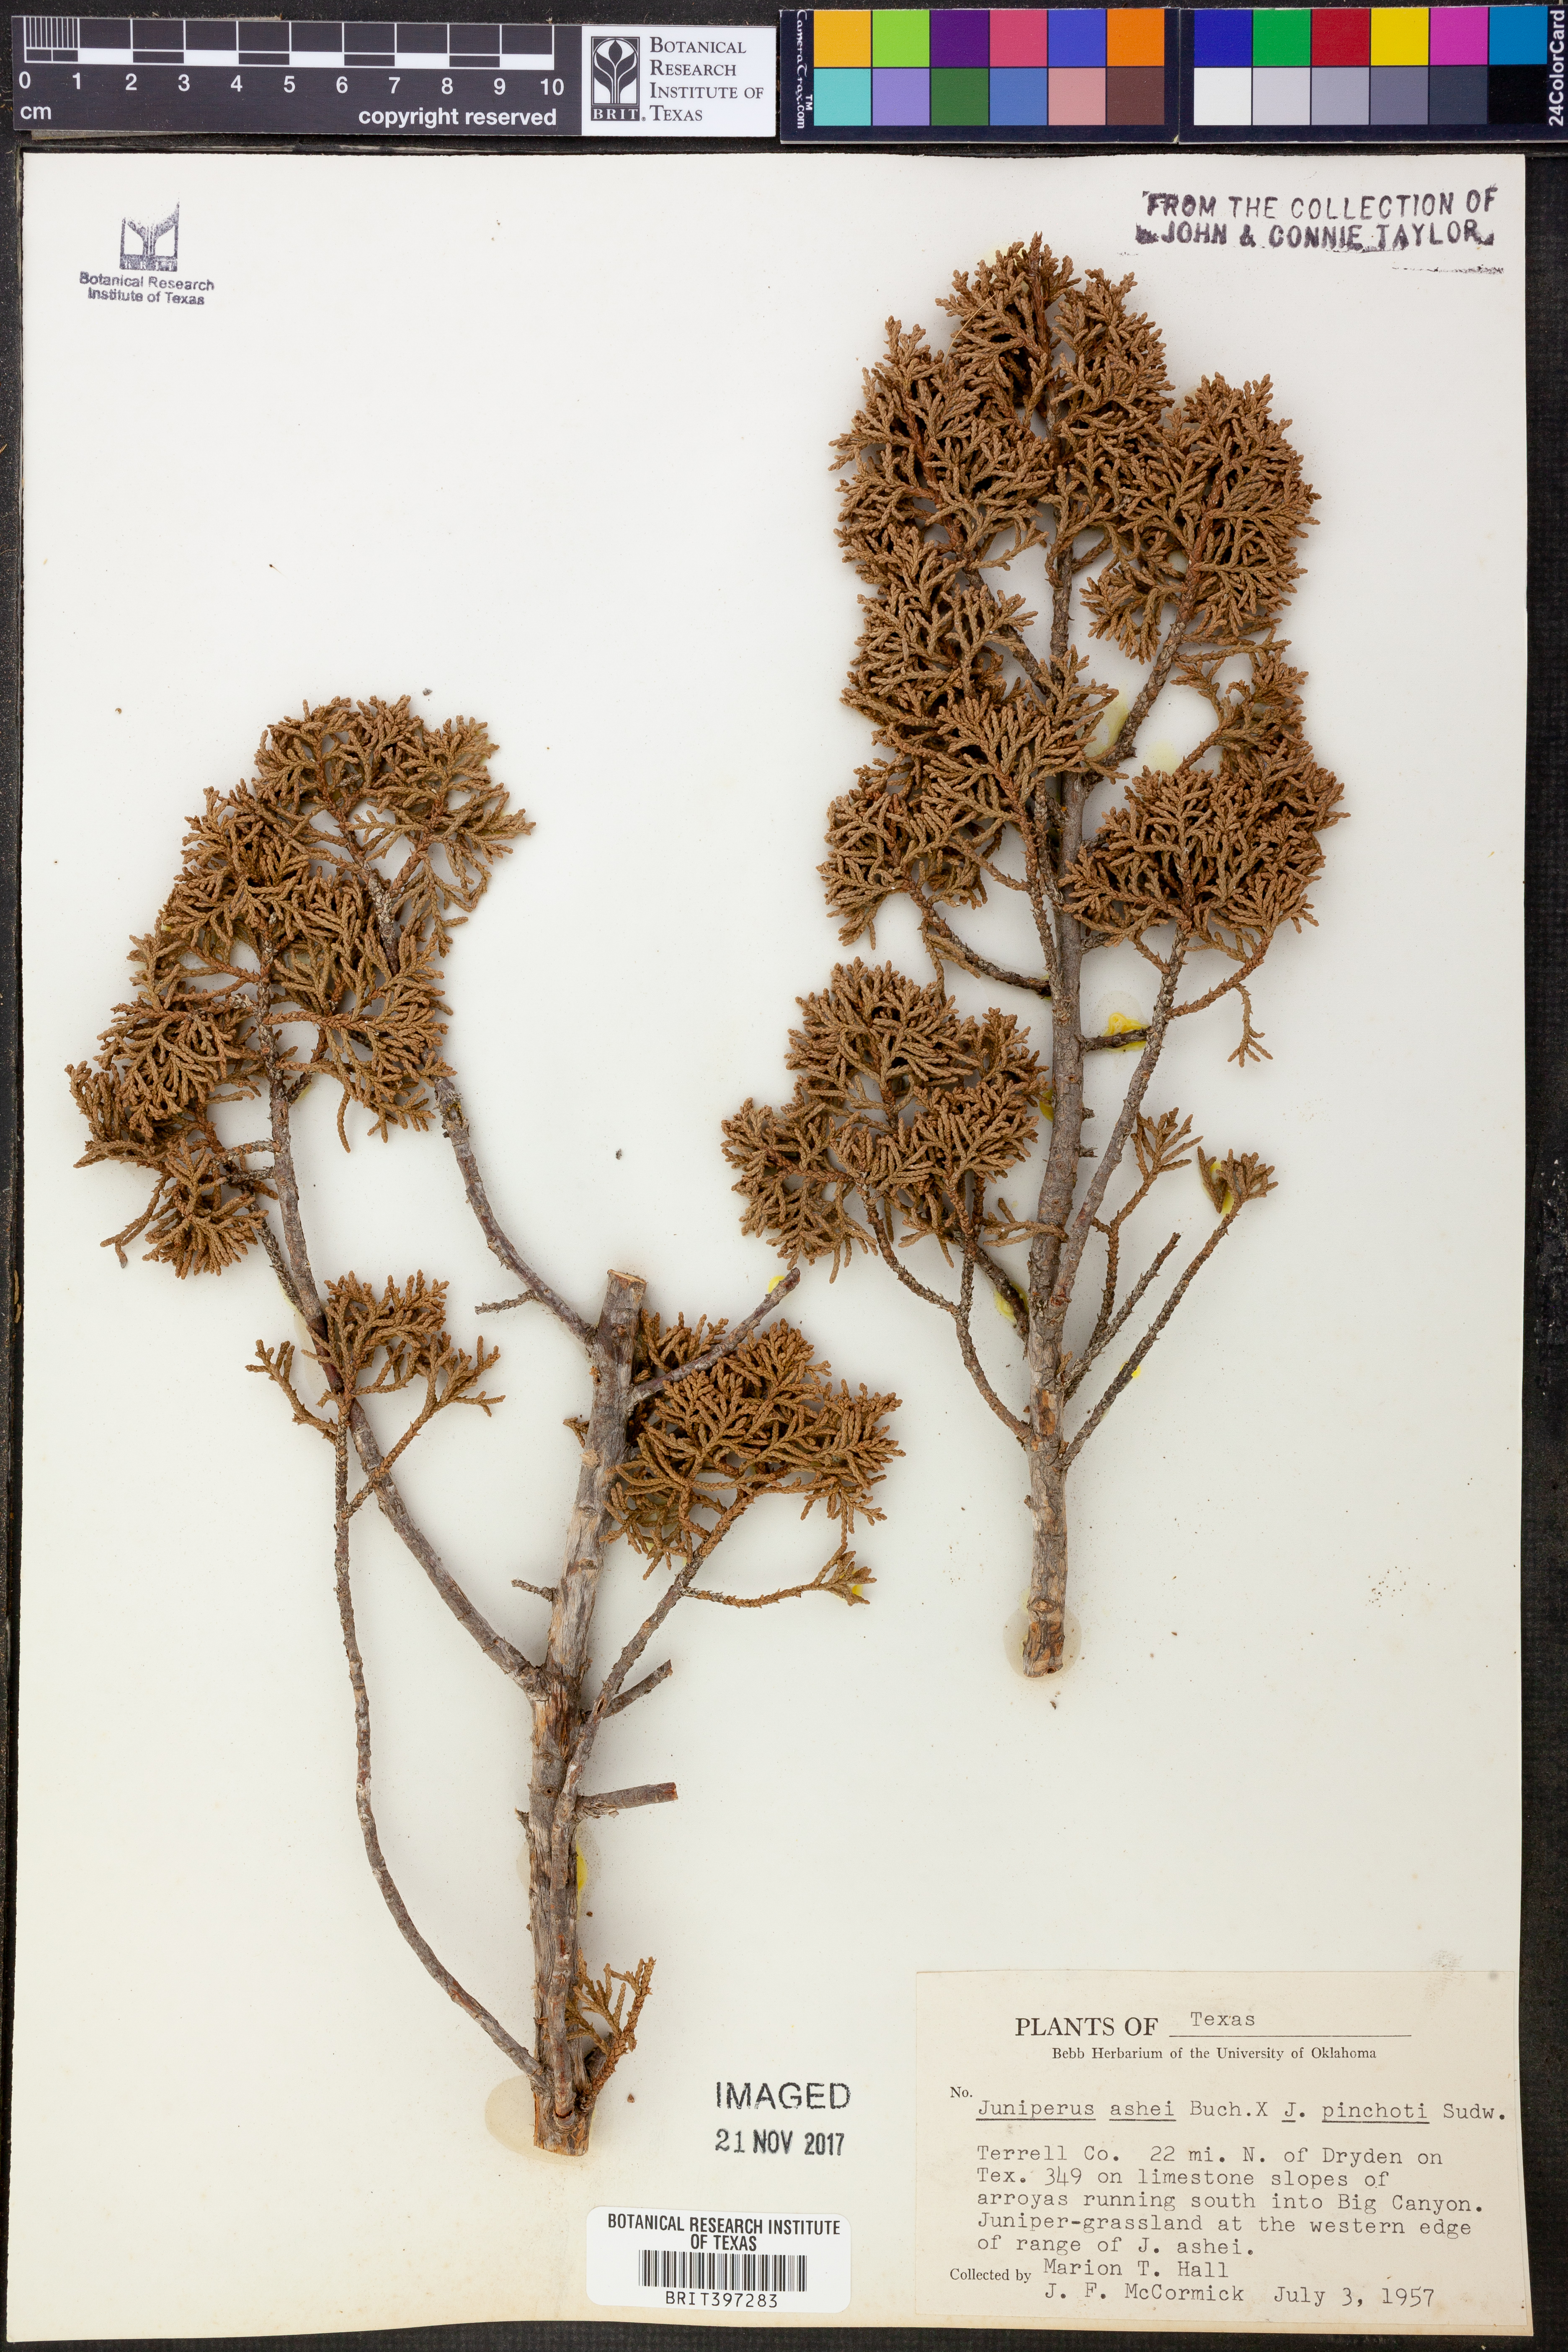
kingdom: Plantae
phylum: Tracheophyta
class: Pinopsida
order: Pinales
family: Cupressaceae
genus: Juniperus
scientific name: Juniperus ashei
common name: Mexican juniper
